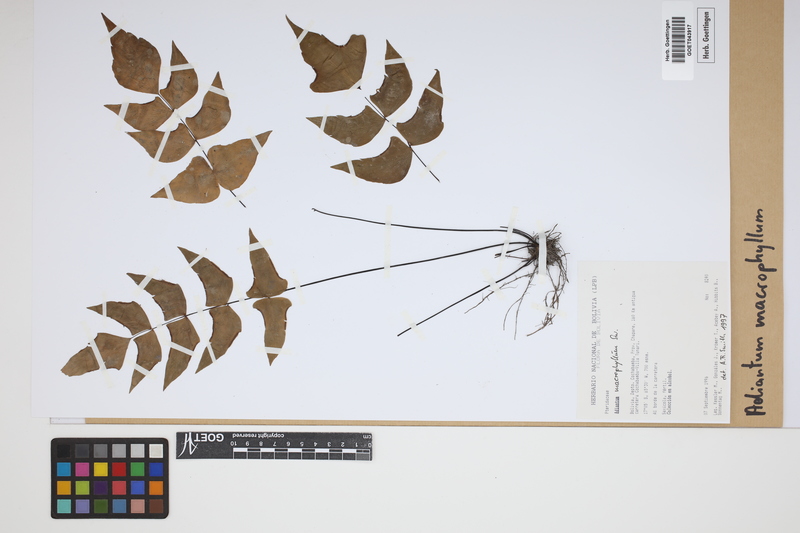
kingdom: Plantae
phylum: Tracheophyta
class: Polypodiopsida
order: Polypodiales
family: Pteridaceae
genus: Adiantum
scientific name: Adiantum macrophyllum
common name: Largeleaf maidenhair
